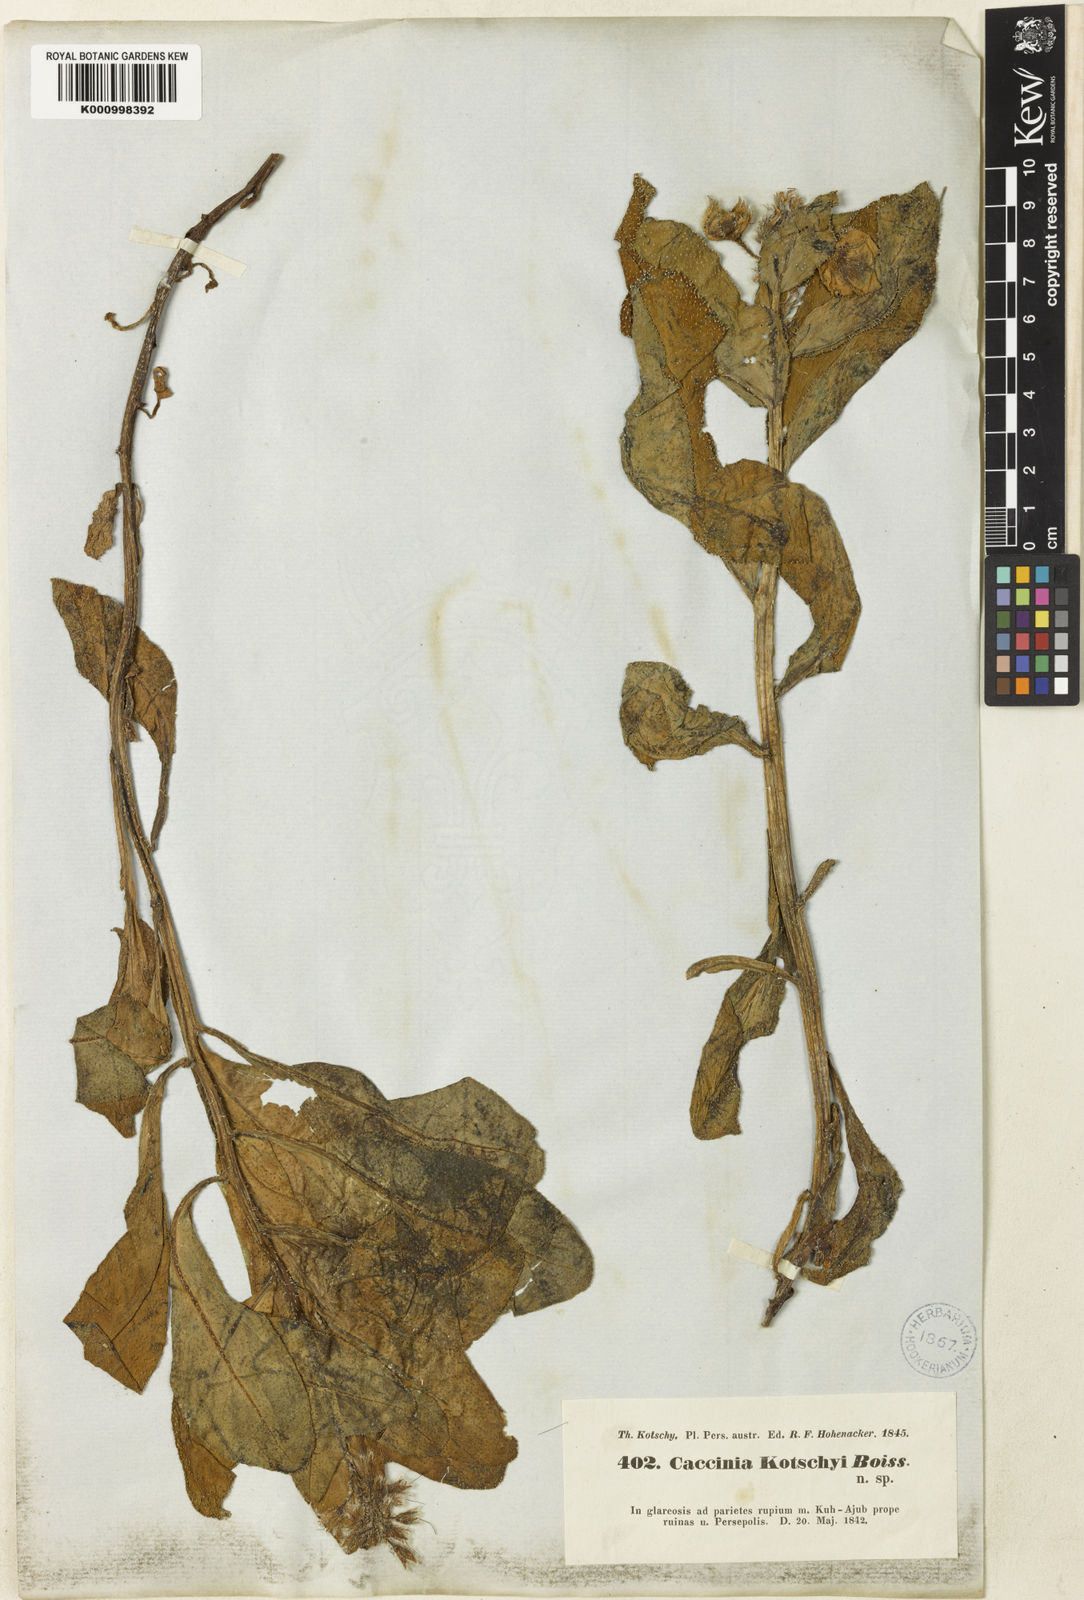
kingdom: Plantae
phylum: Tracheophyta
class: Magnoliopsida
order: Boraginales
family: Boraginaceae
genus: Caccinia
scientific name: Caccinia kotschyi
